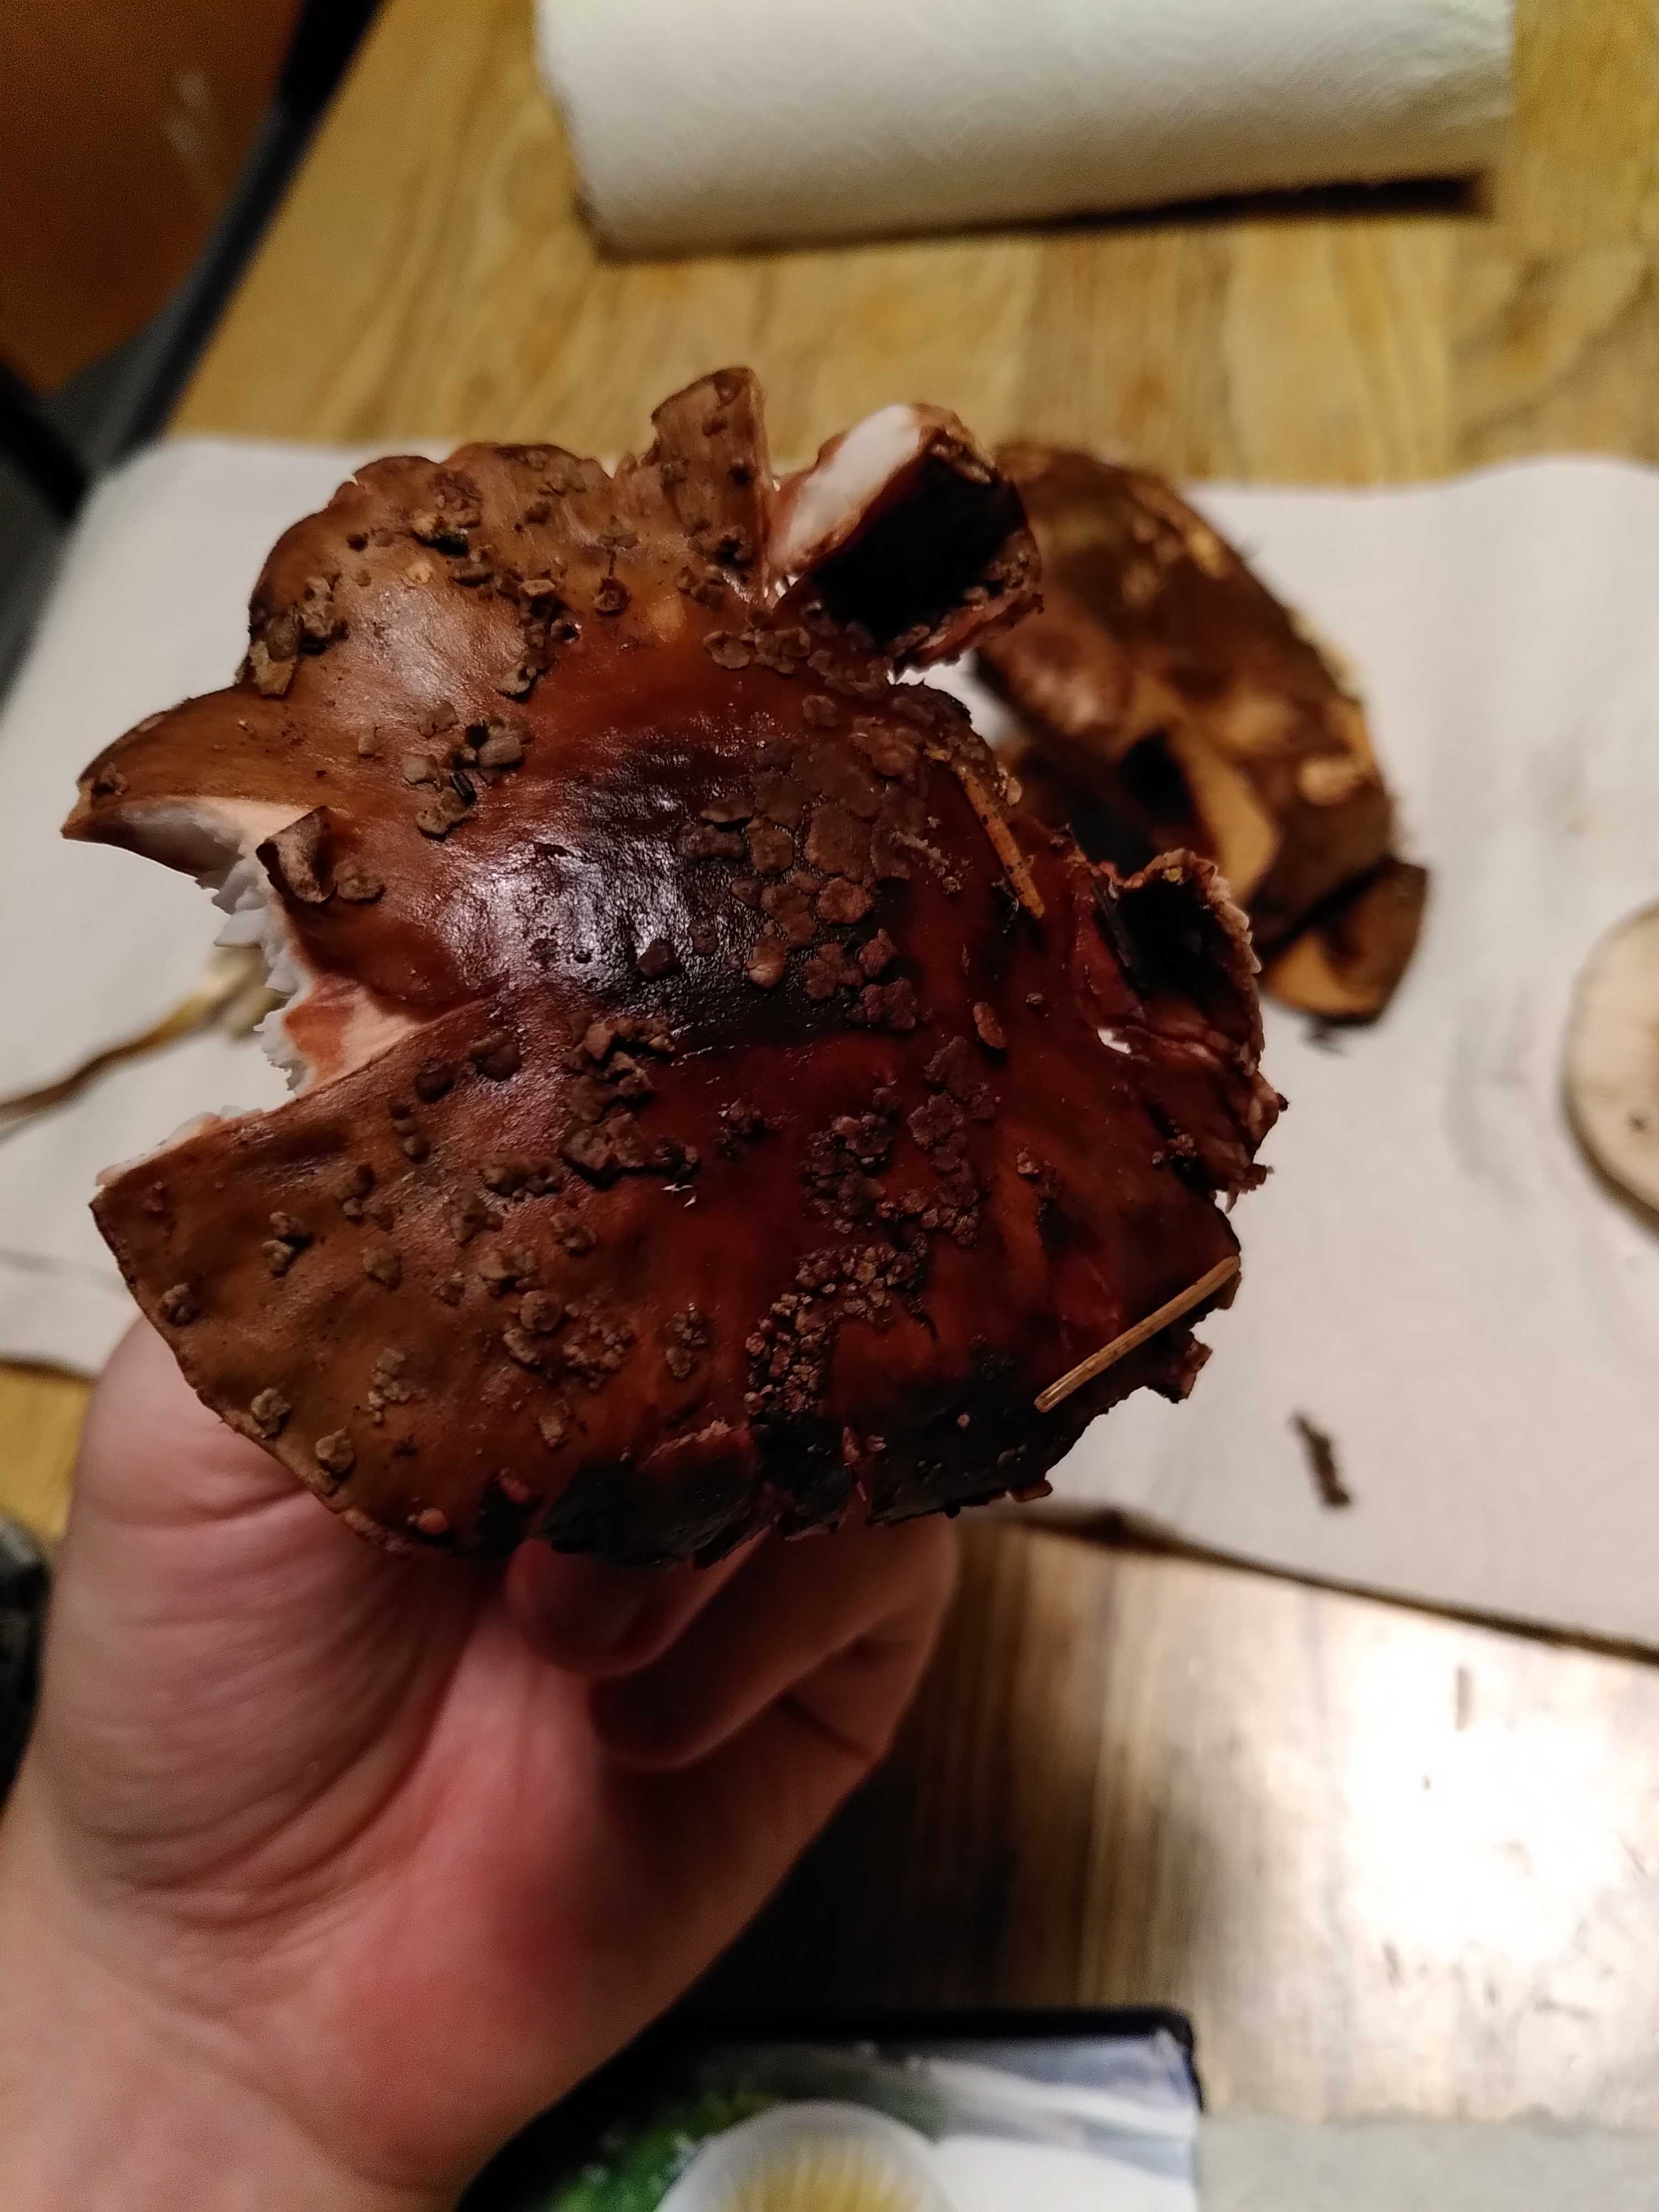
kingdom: Fungi
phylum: Basidiomycota
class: Agaricomycetes
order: Agaricales
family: Amanitaceae
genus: Amanita
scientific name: Amanita rubescens
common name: rødmende fluesvamp
